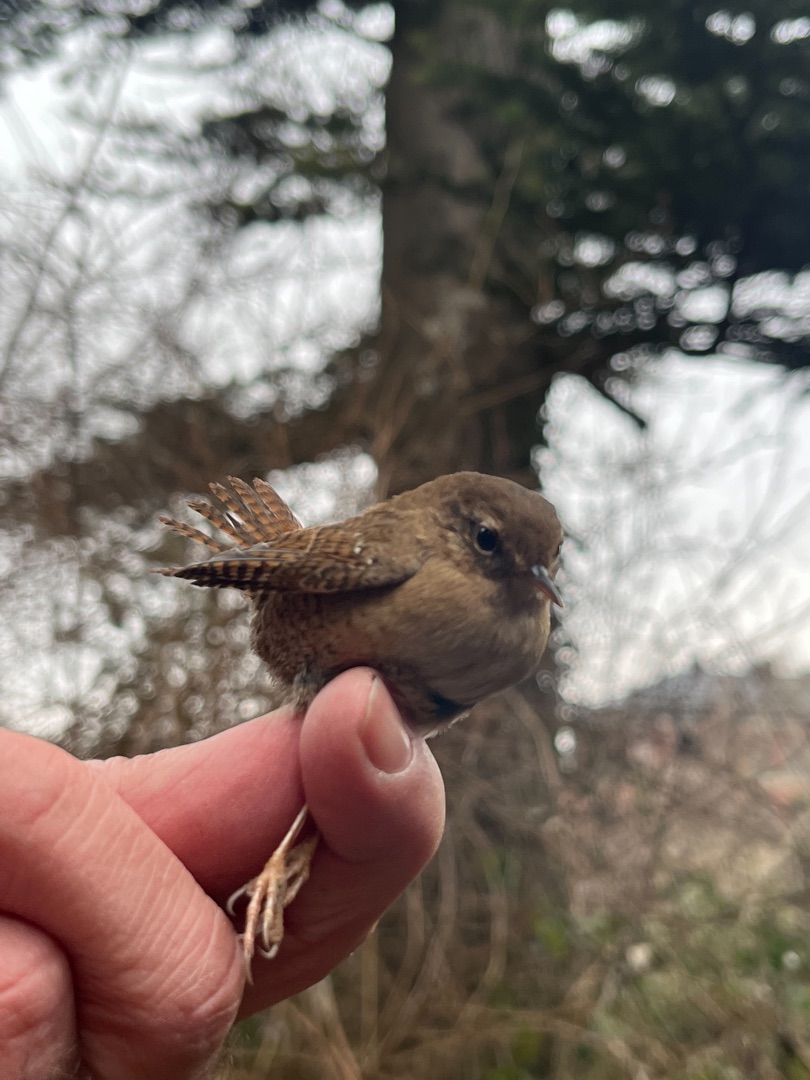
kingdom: Animalia
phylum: Chordata
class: Aves
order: Passeriformes
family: Troglodytidae
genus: Troglodytes
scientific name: Troglodytes troglodytes
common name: Gærdesmutte
